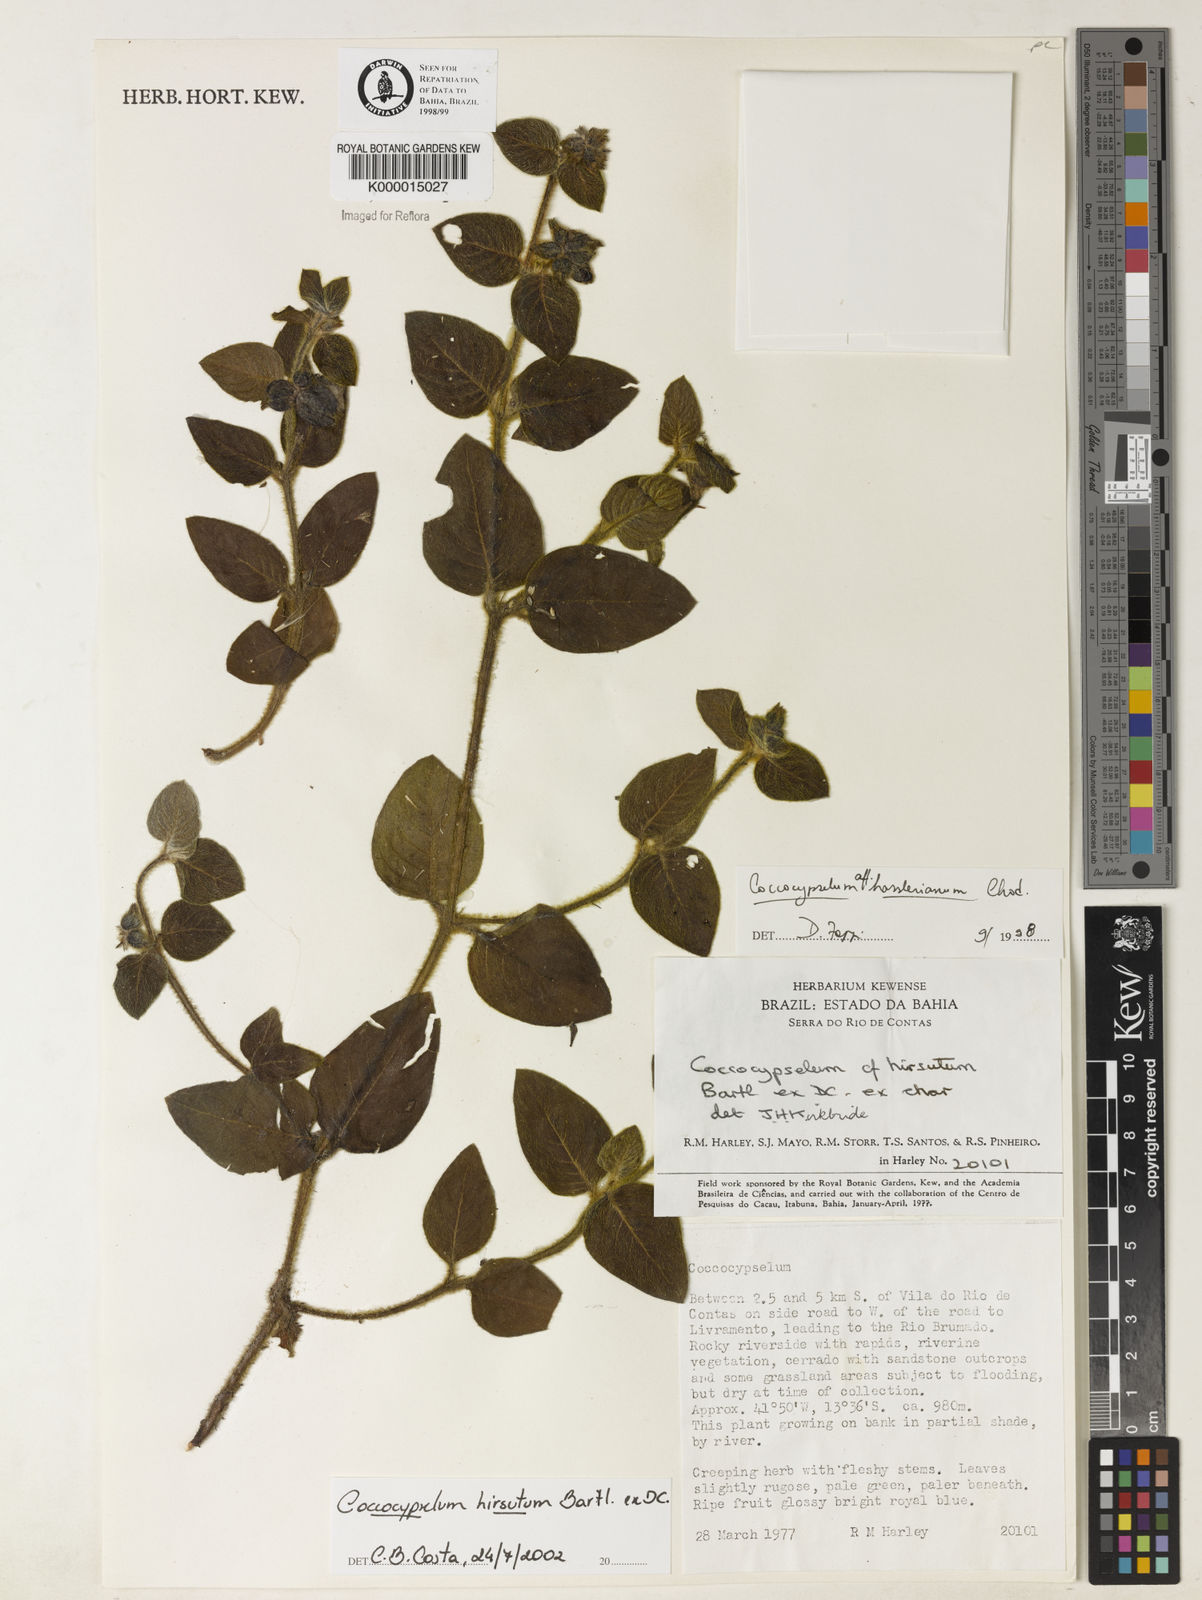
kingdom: Plantae
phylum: Tracheophyta
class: Magnoliopsida
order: Gentianales
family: Rubiaceae
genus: Coccocypselum
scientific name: Coccocypselum hirsutum
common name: Yerba de guava
